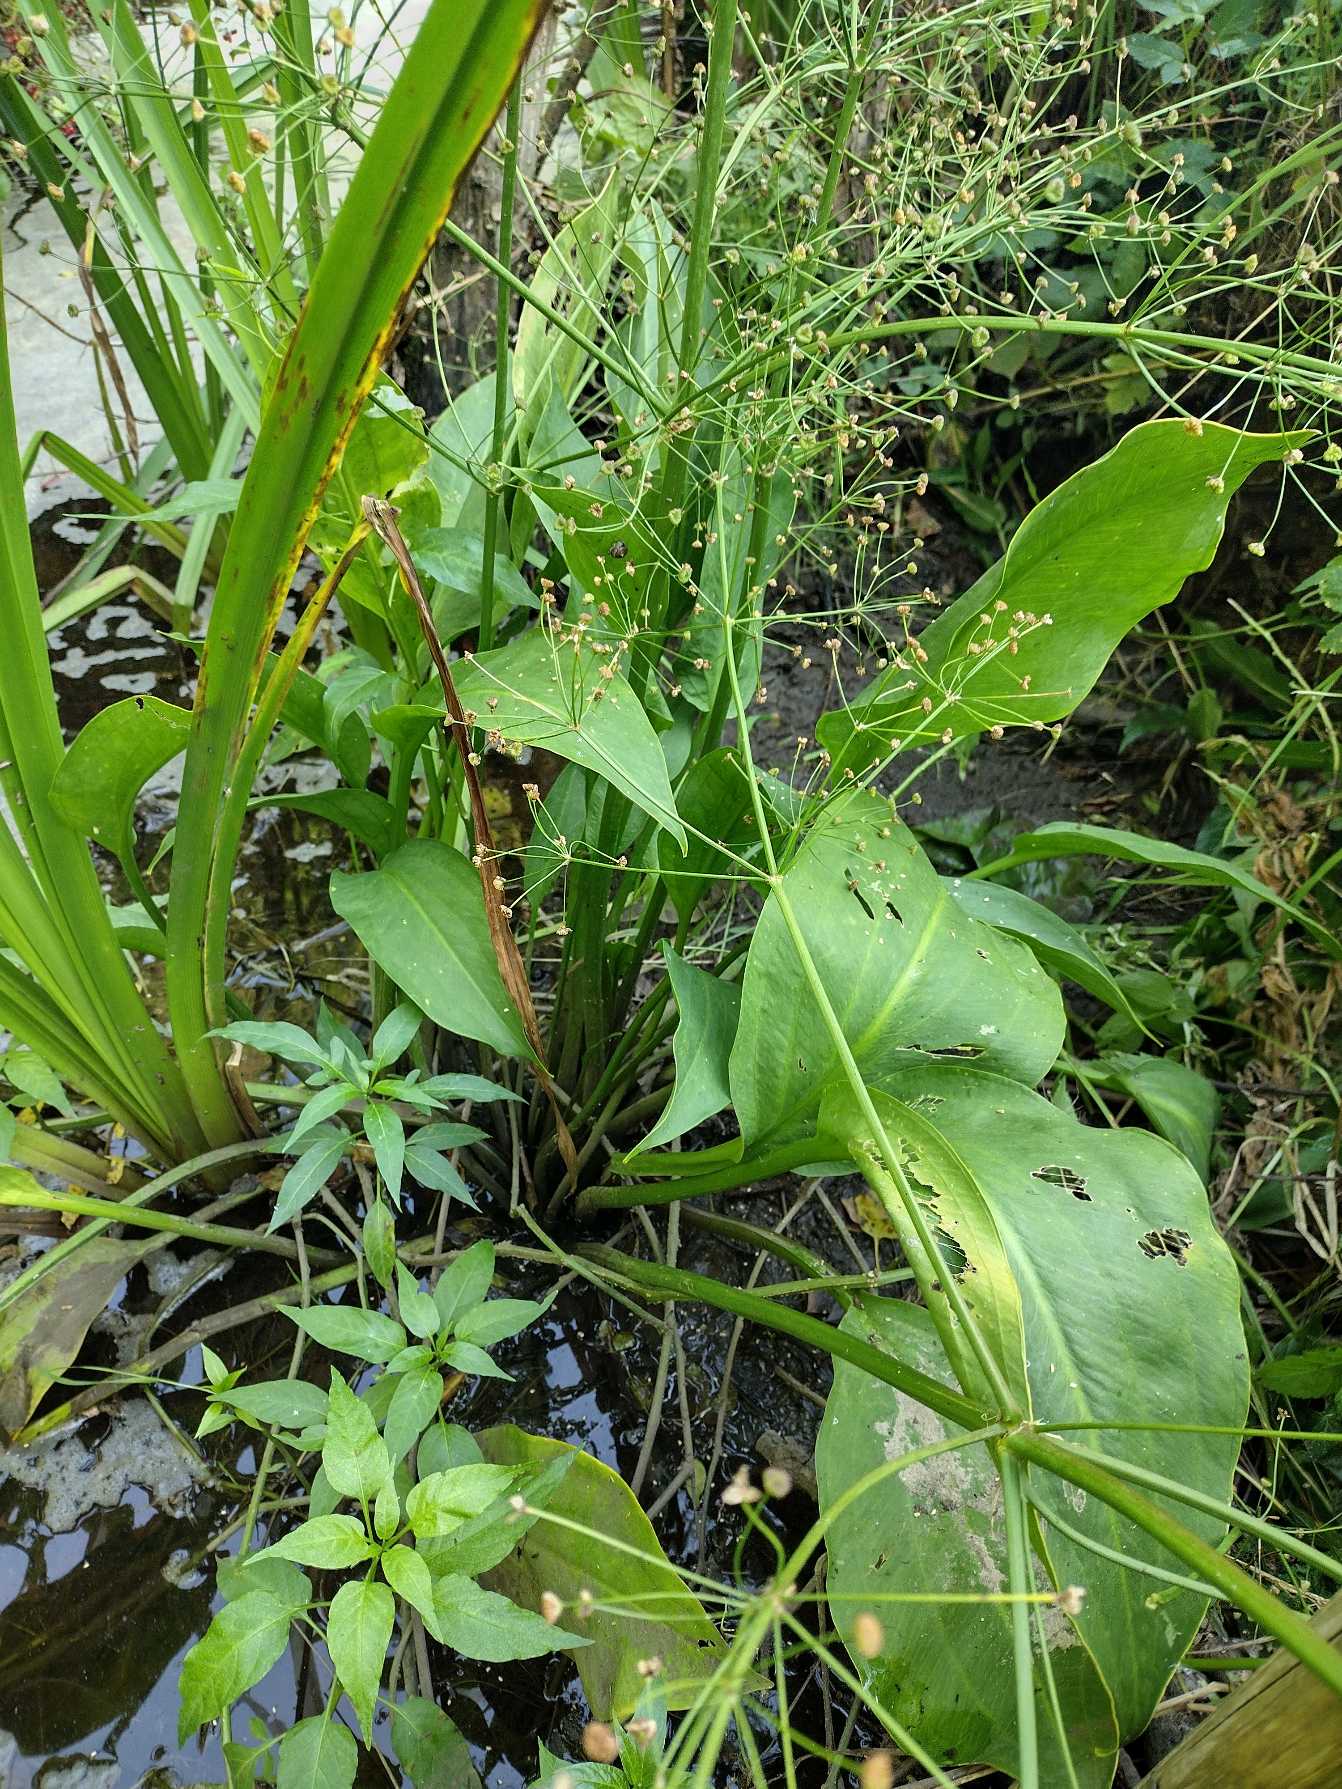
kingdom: Plantae
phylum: Tracheophyta
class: Liliopsida
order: Alismatales
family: Alismataceae
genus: Alisma
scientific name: Alisma plantago-aquatica
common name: Vejbred-skeblad
